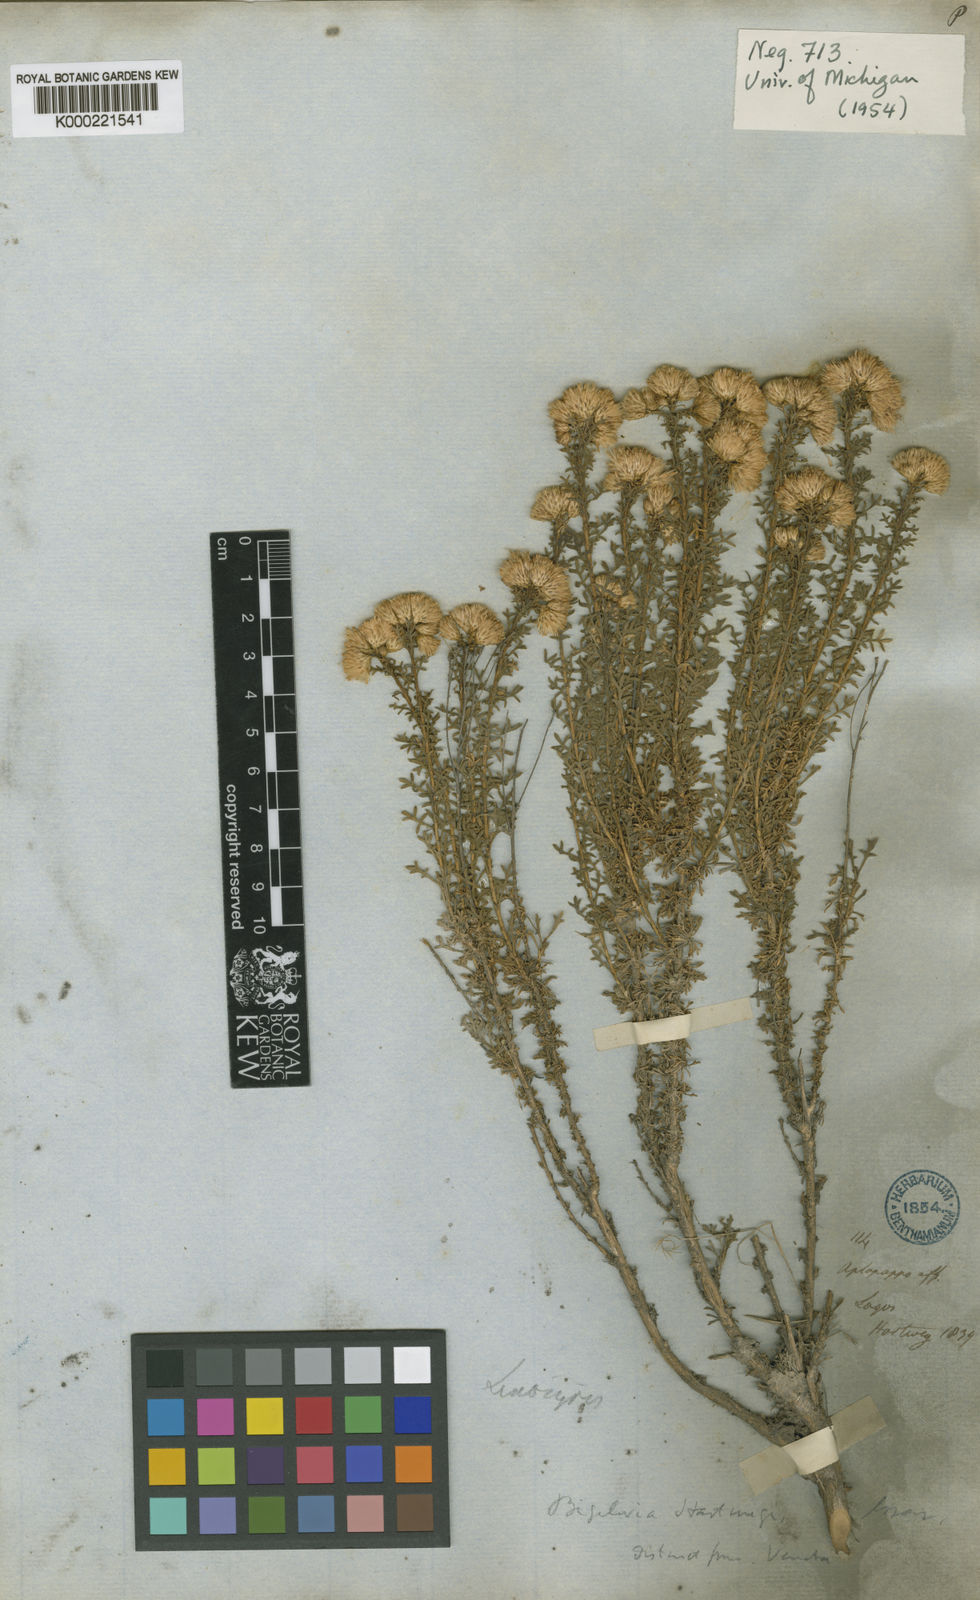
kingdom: Plantae
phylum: Tracheophyta
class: Magnoliopsida
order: Asterales
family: Asteraceae
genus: Isocoma
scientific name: Isocoma hartwegii
